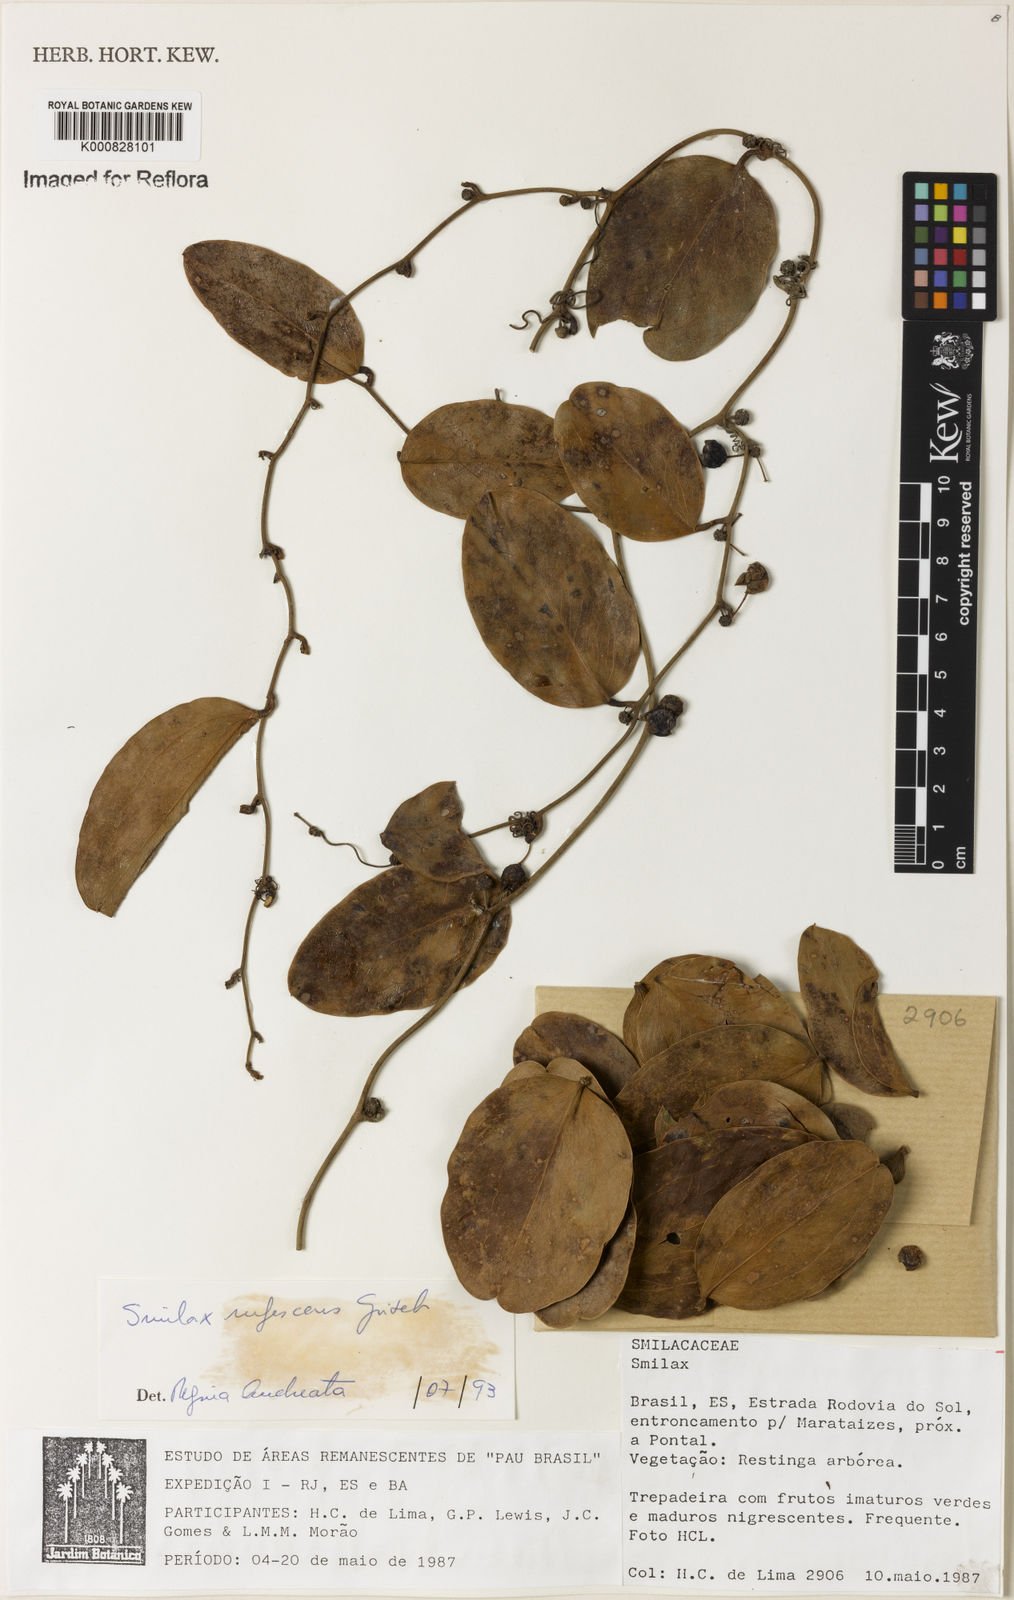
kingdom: Plantae
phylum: Tracheophyta
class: Liliopsida
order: Liliales
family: Smilacaceae
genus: Smilax
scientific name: Smilax rufescens
